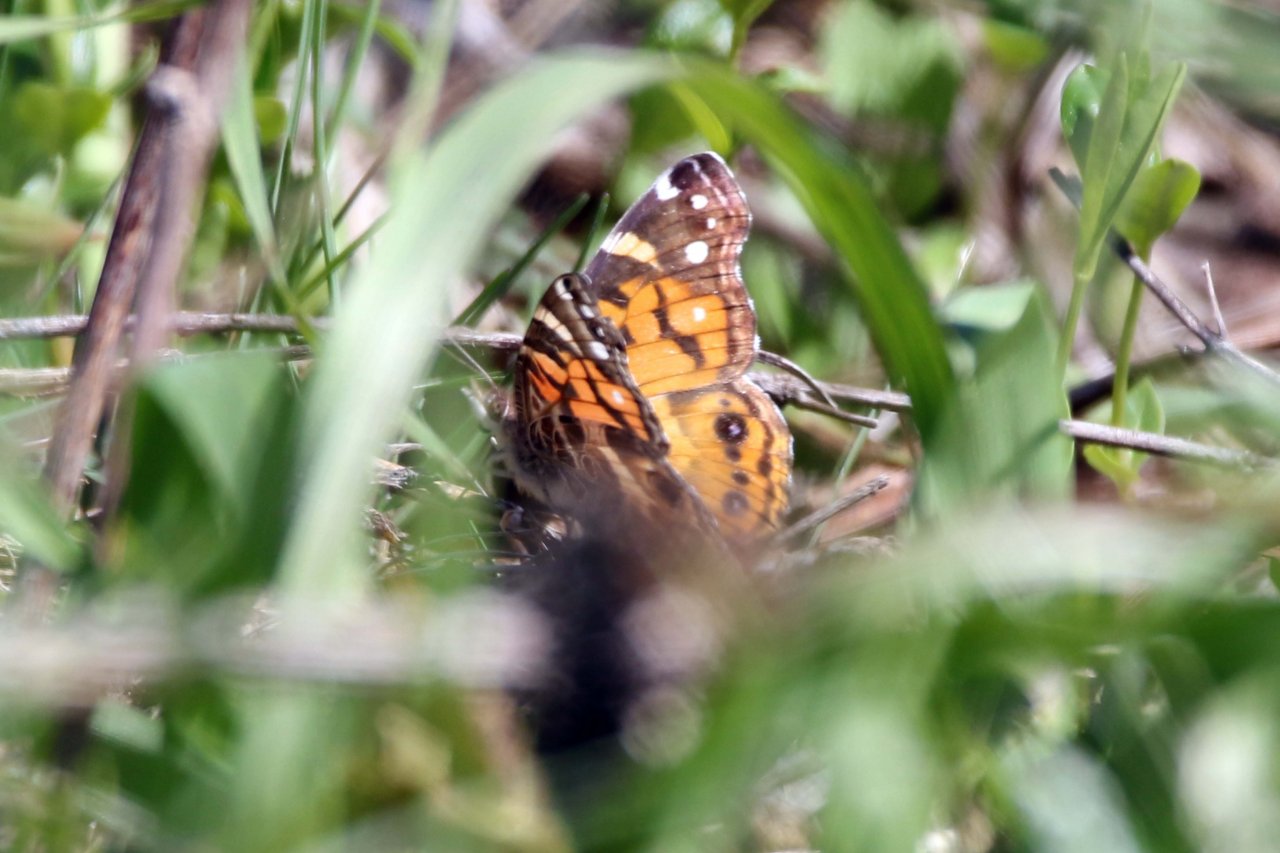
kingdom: Animalia
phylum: Arthropoda
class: Insecta
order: Lepidoptera
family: Nymphalidae
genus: Vanessa
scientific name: Vanessa virginiensis
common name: American Lady
